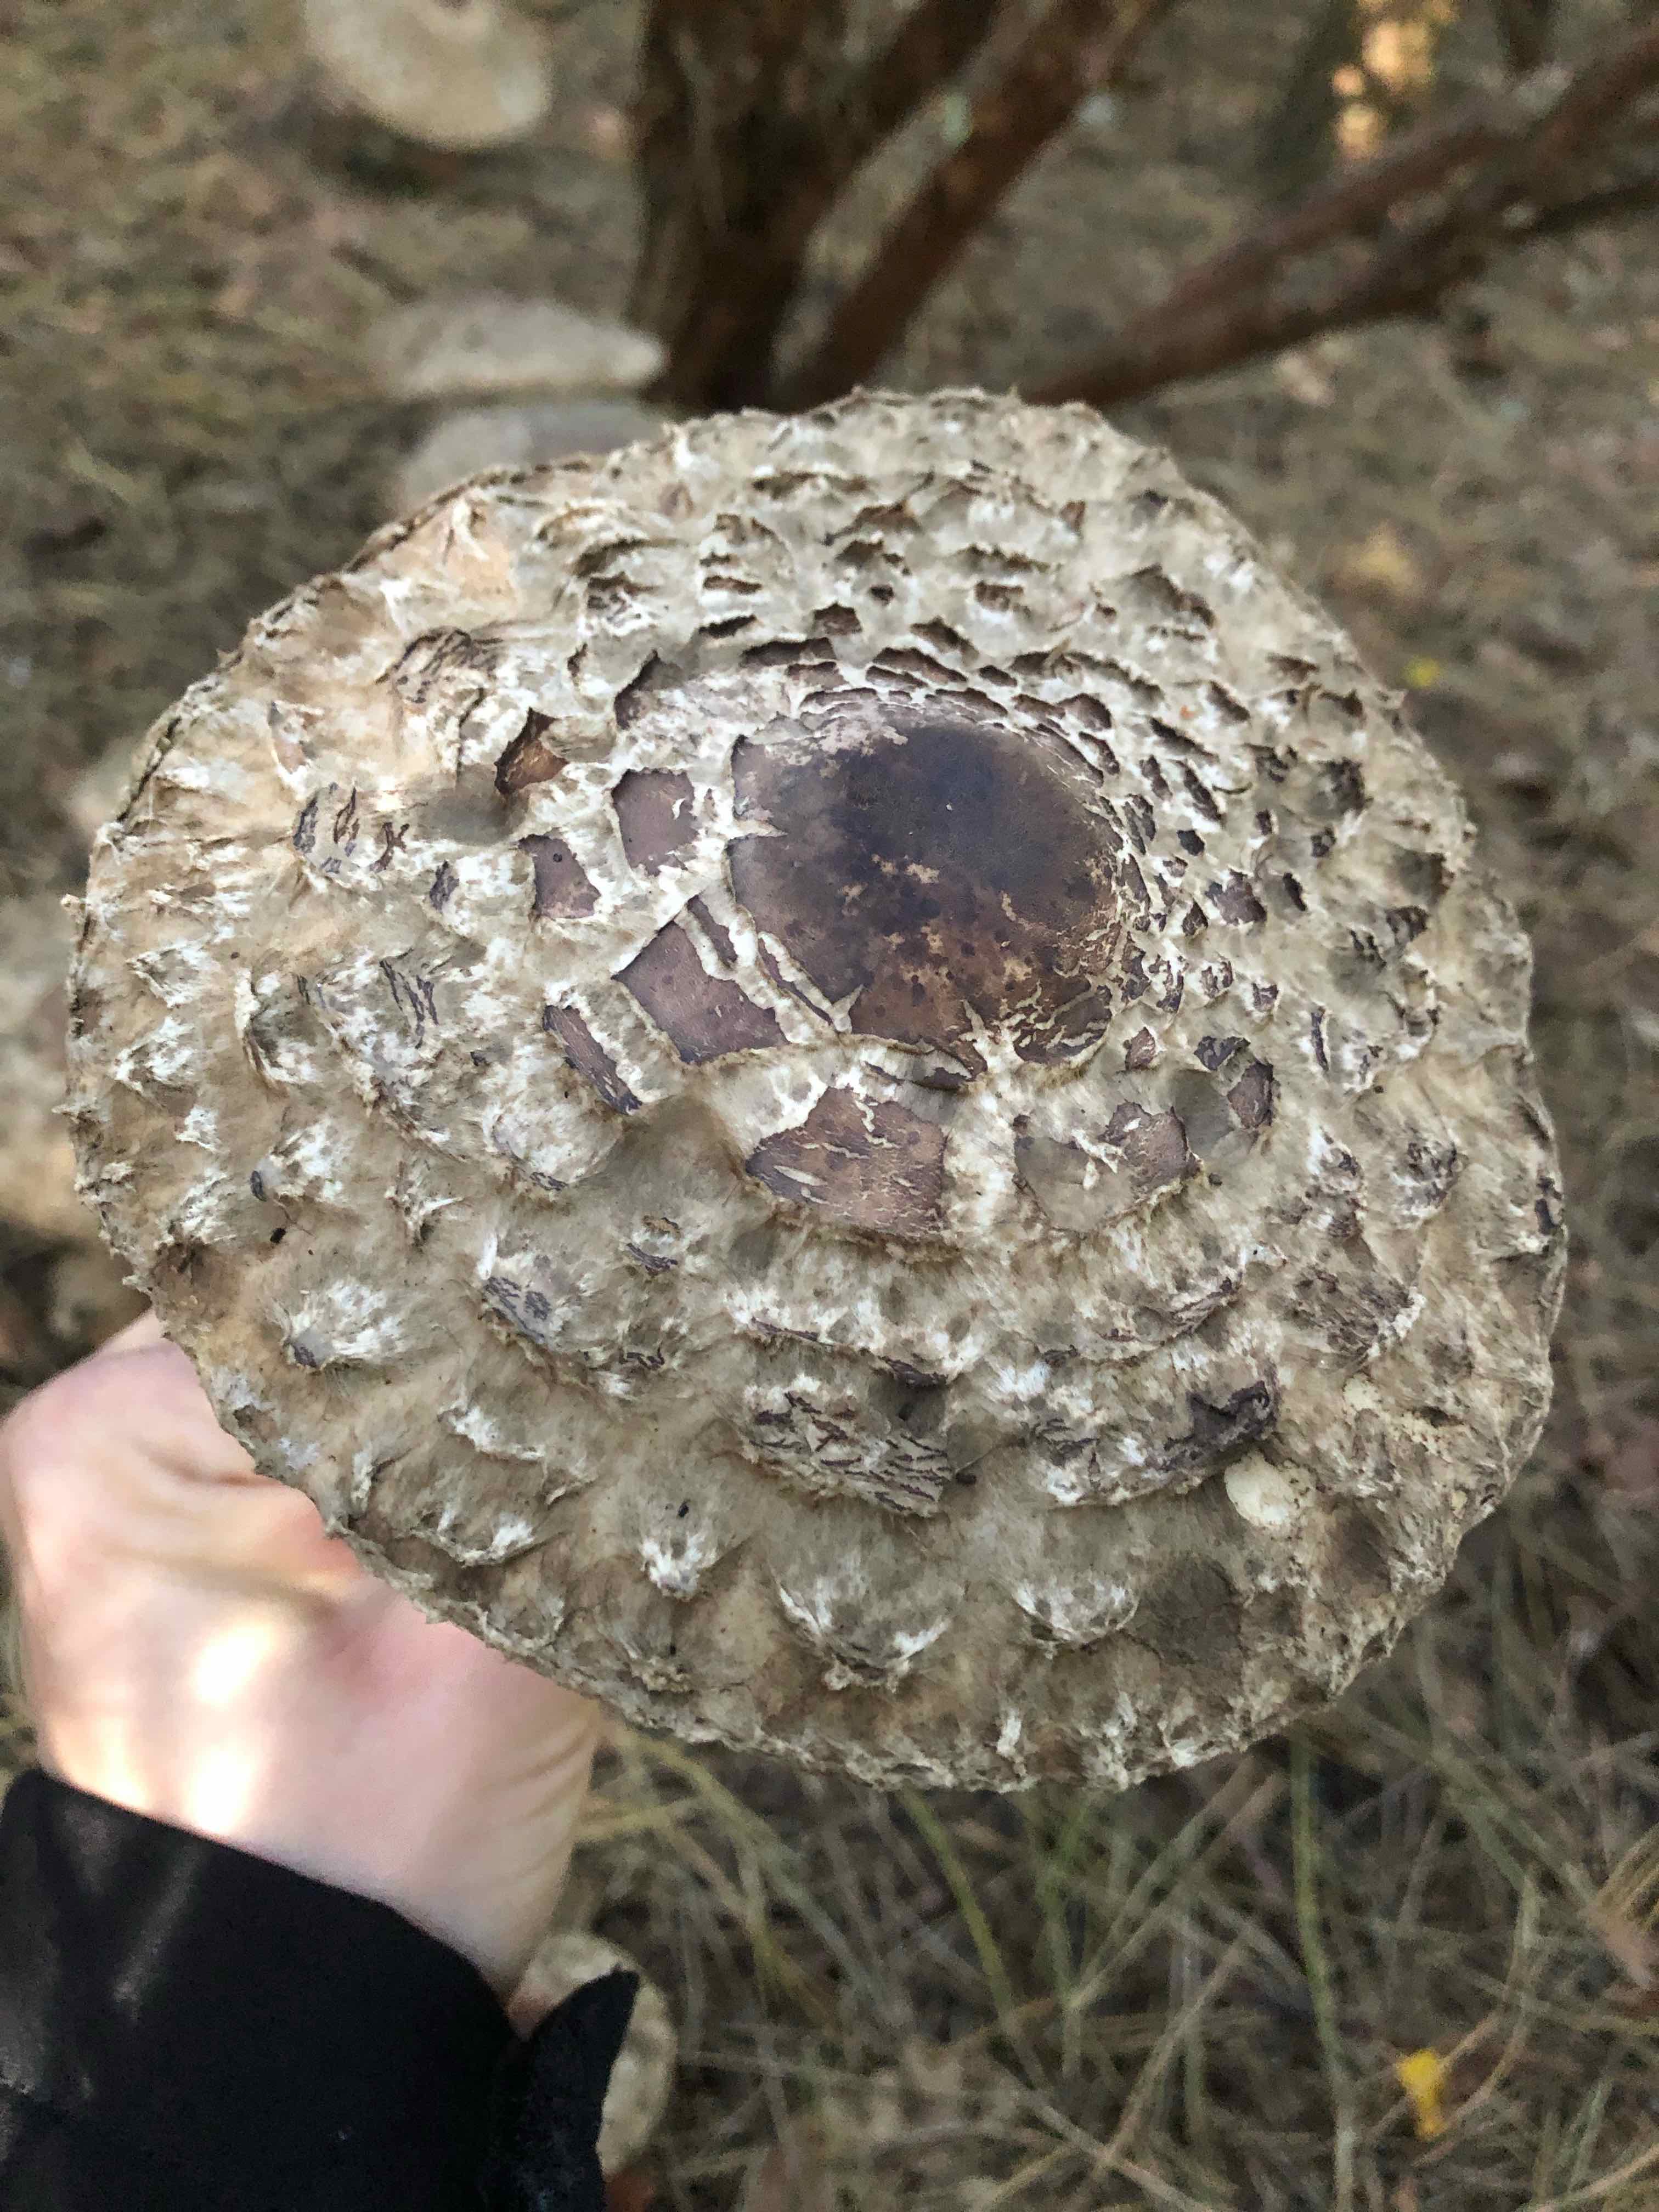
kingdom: Fungi
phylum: Basidiomycota
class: Agaricomycetes
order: Agaricales
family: Agaricaceae
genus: Chlorophyllum
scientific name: Chlorophyllum olivieri
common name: almindelig rabarberhat
